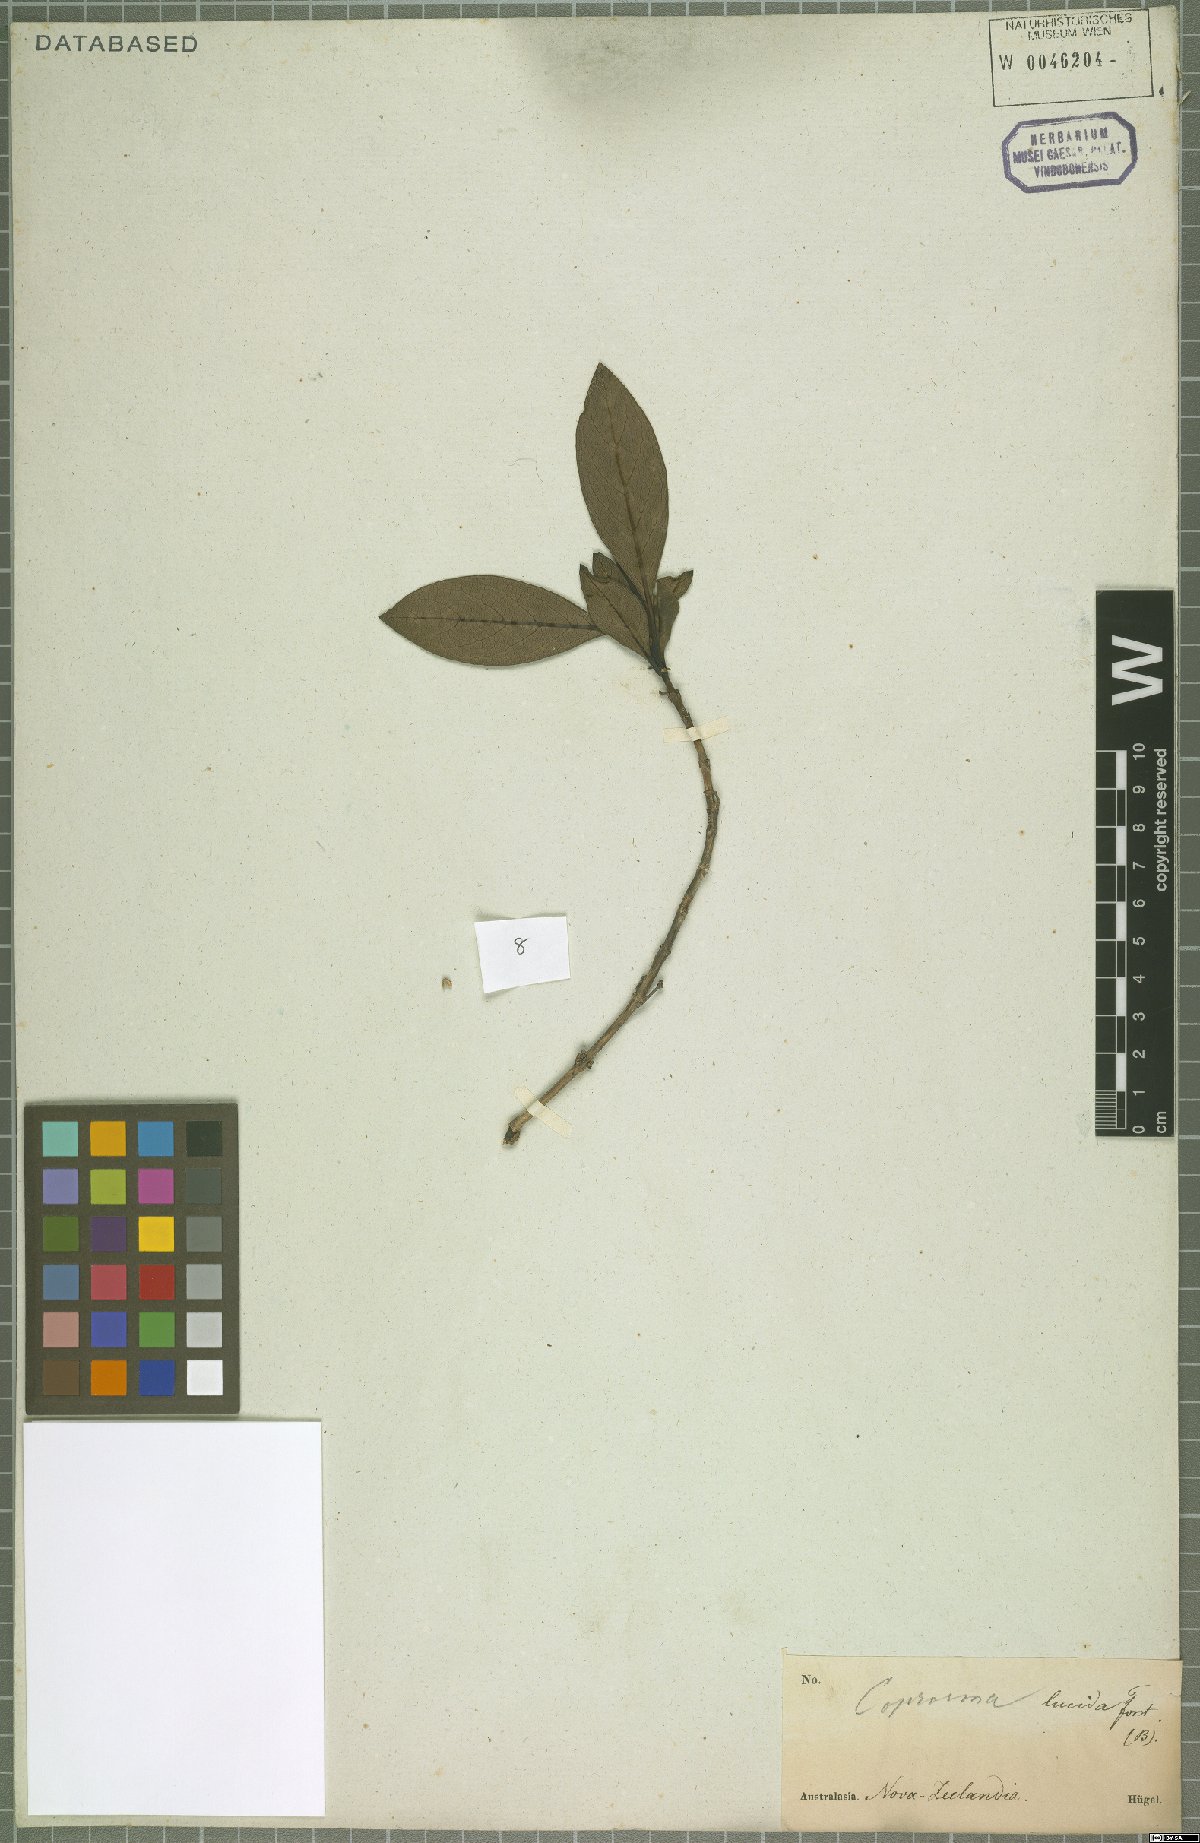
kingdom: Plantae
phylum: Tracheophyta
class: Magnoliopsida
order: Gentianales
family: Rubiaceae
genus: Coprosma
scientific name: Coprosma lucida
